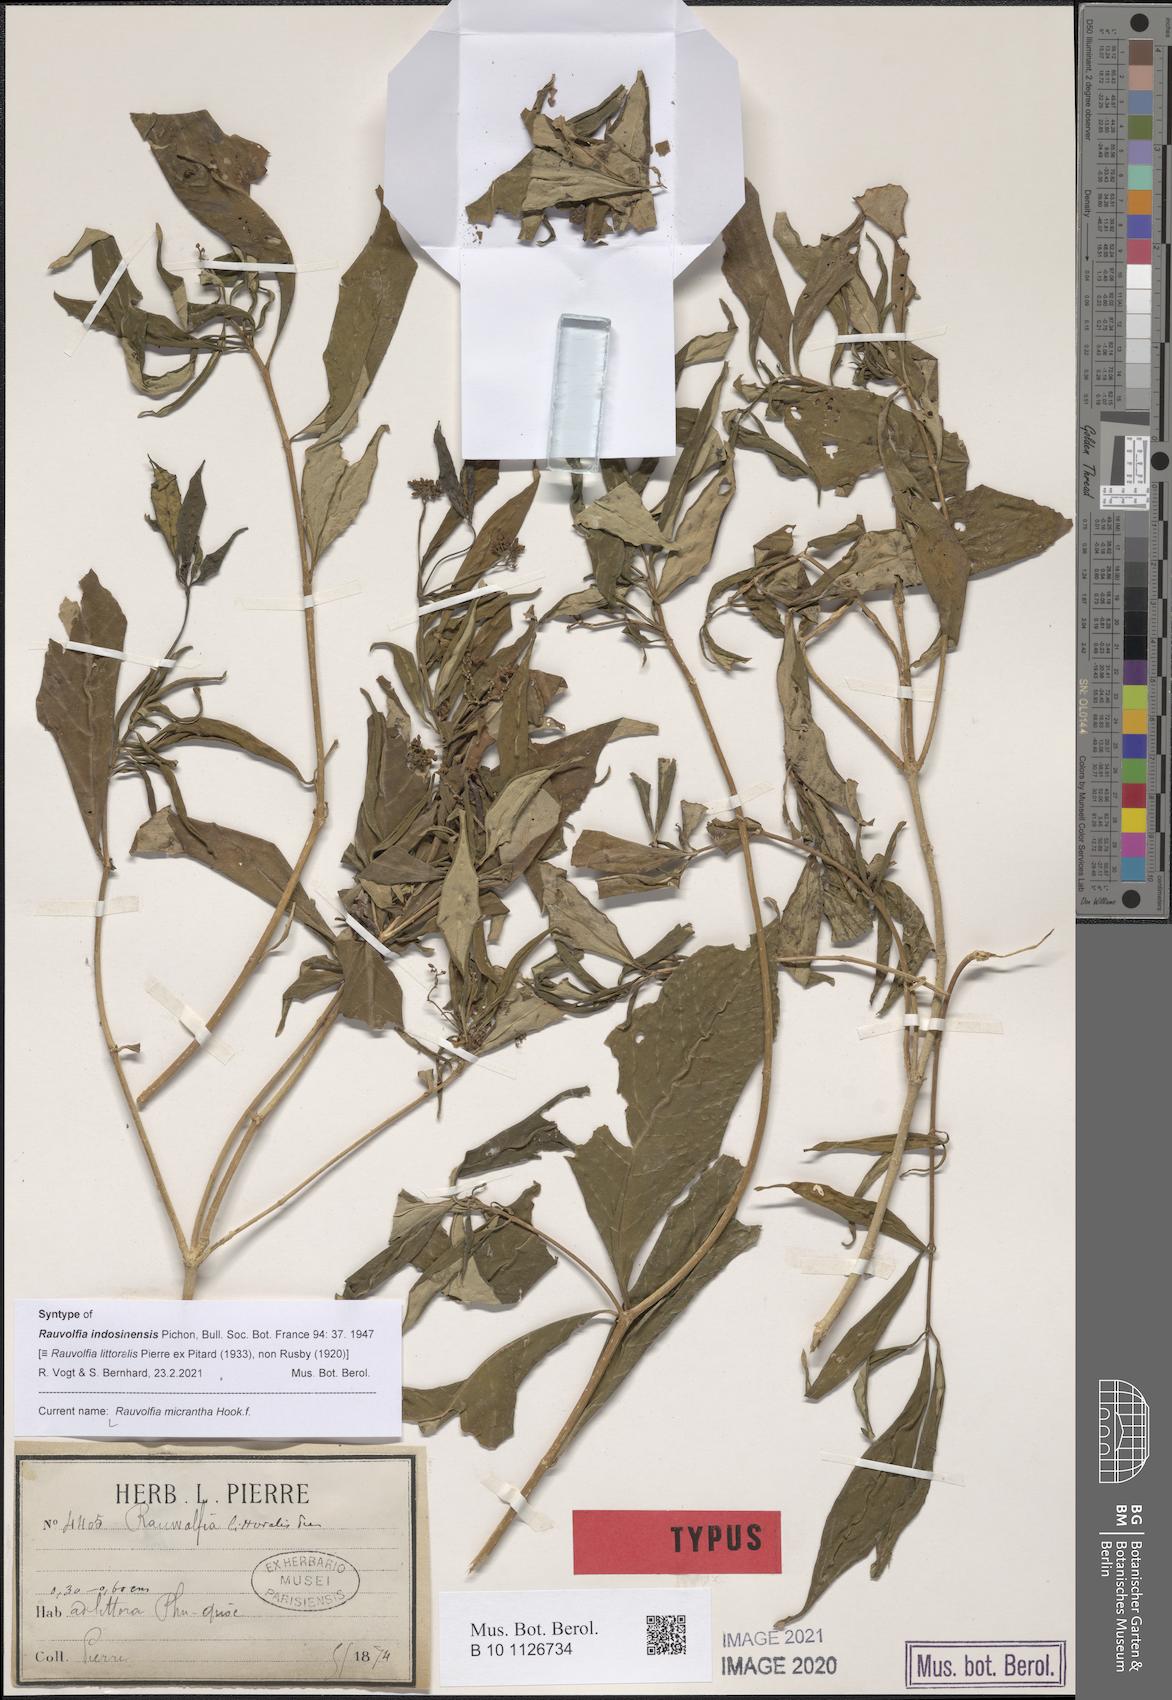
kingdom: Plantae
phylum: Tracheophyta
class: Magnoliopsida
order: Gentianales
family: Apocynaceae
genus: Rauvolfia
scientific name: Rauvolfia micrantha
